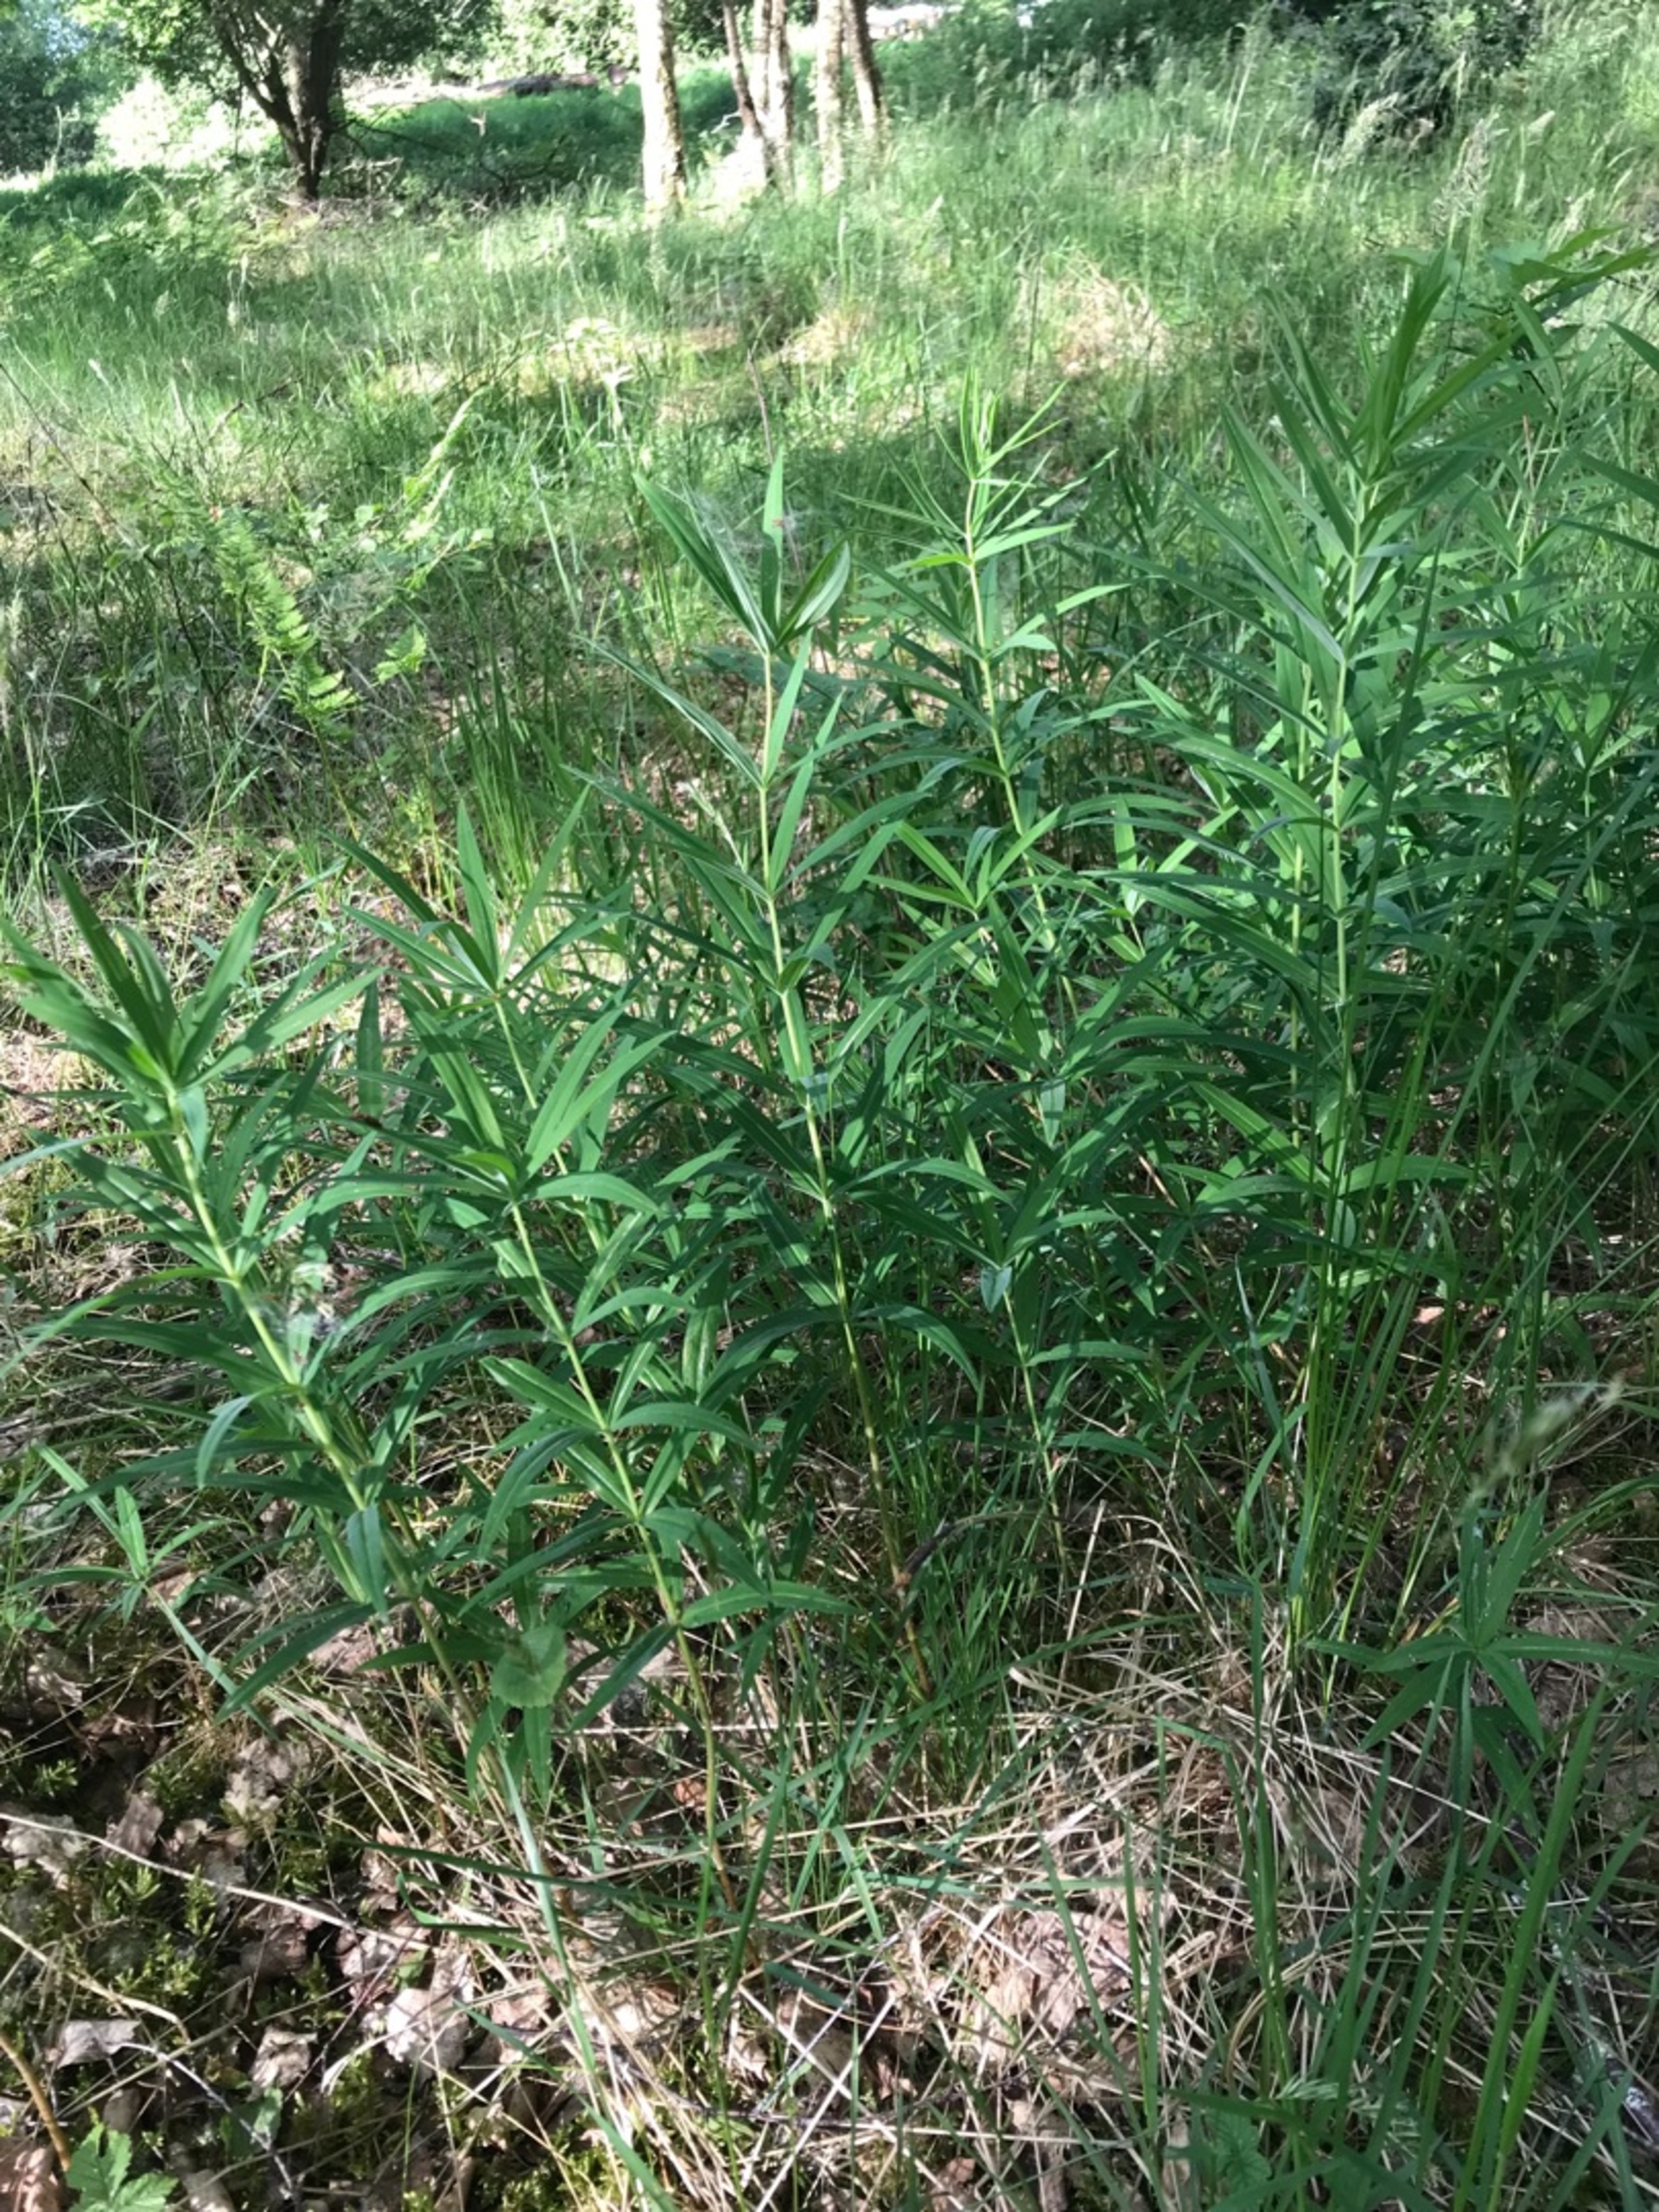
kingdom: Plantae
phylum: Tracheophyta
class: Liliopsida
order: Asparagales
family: Asparagaceae
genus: Polygonatum
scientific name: Polygonatum verticillatum
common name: Krans-konval
